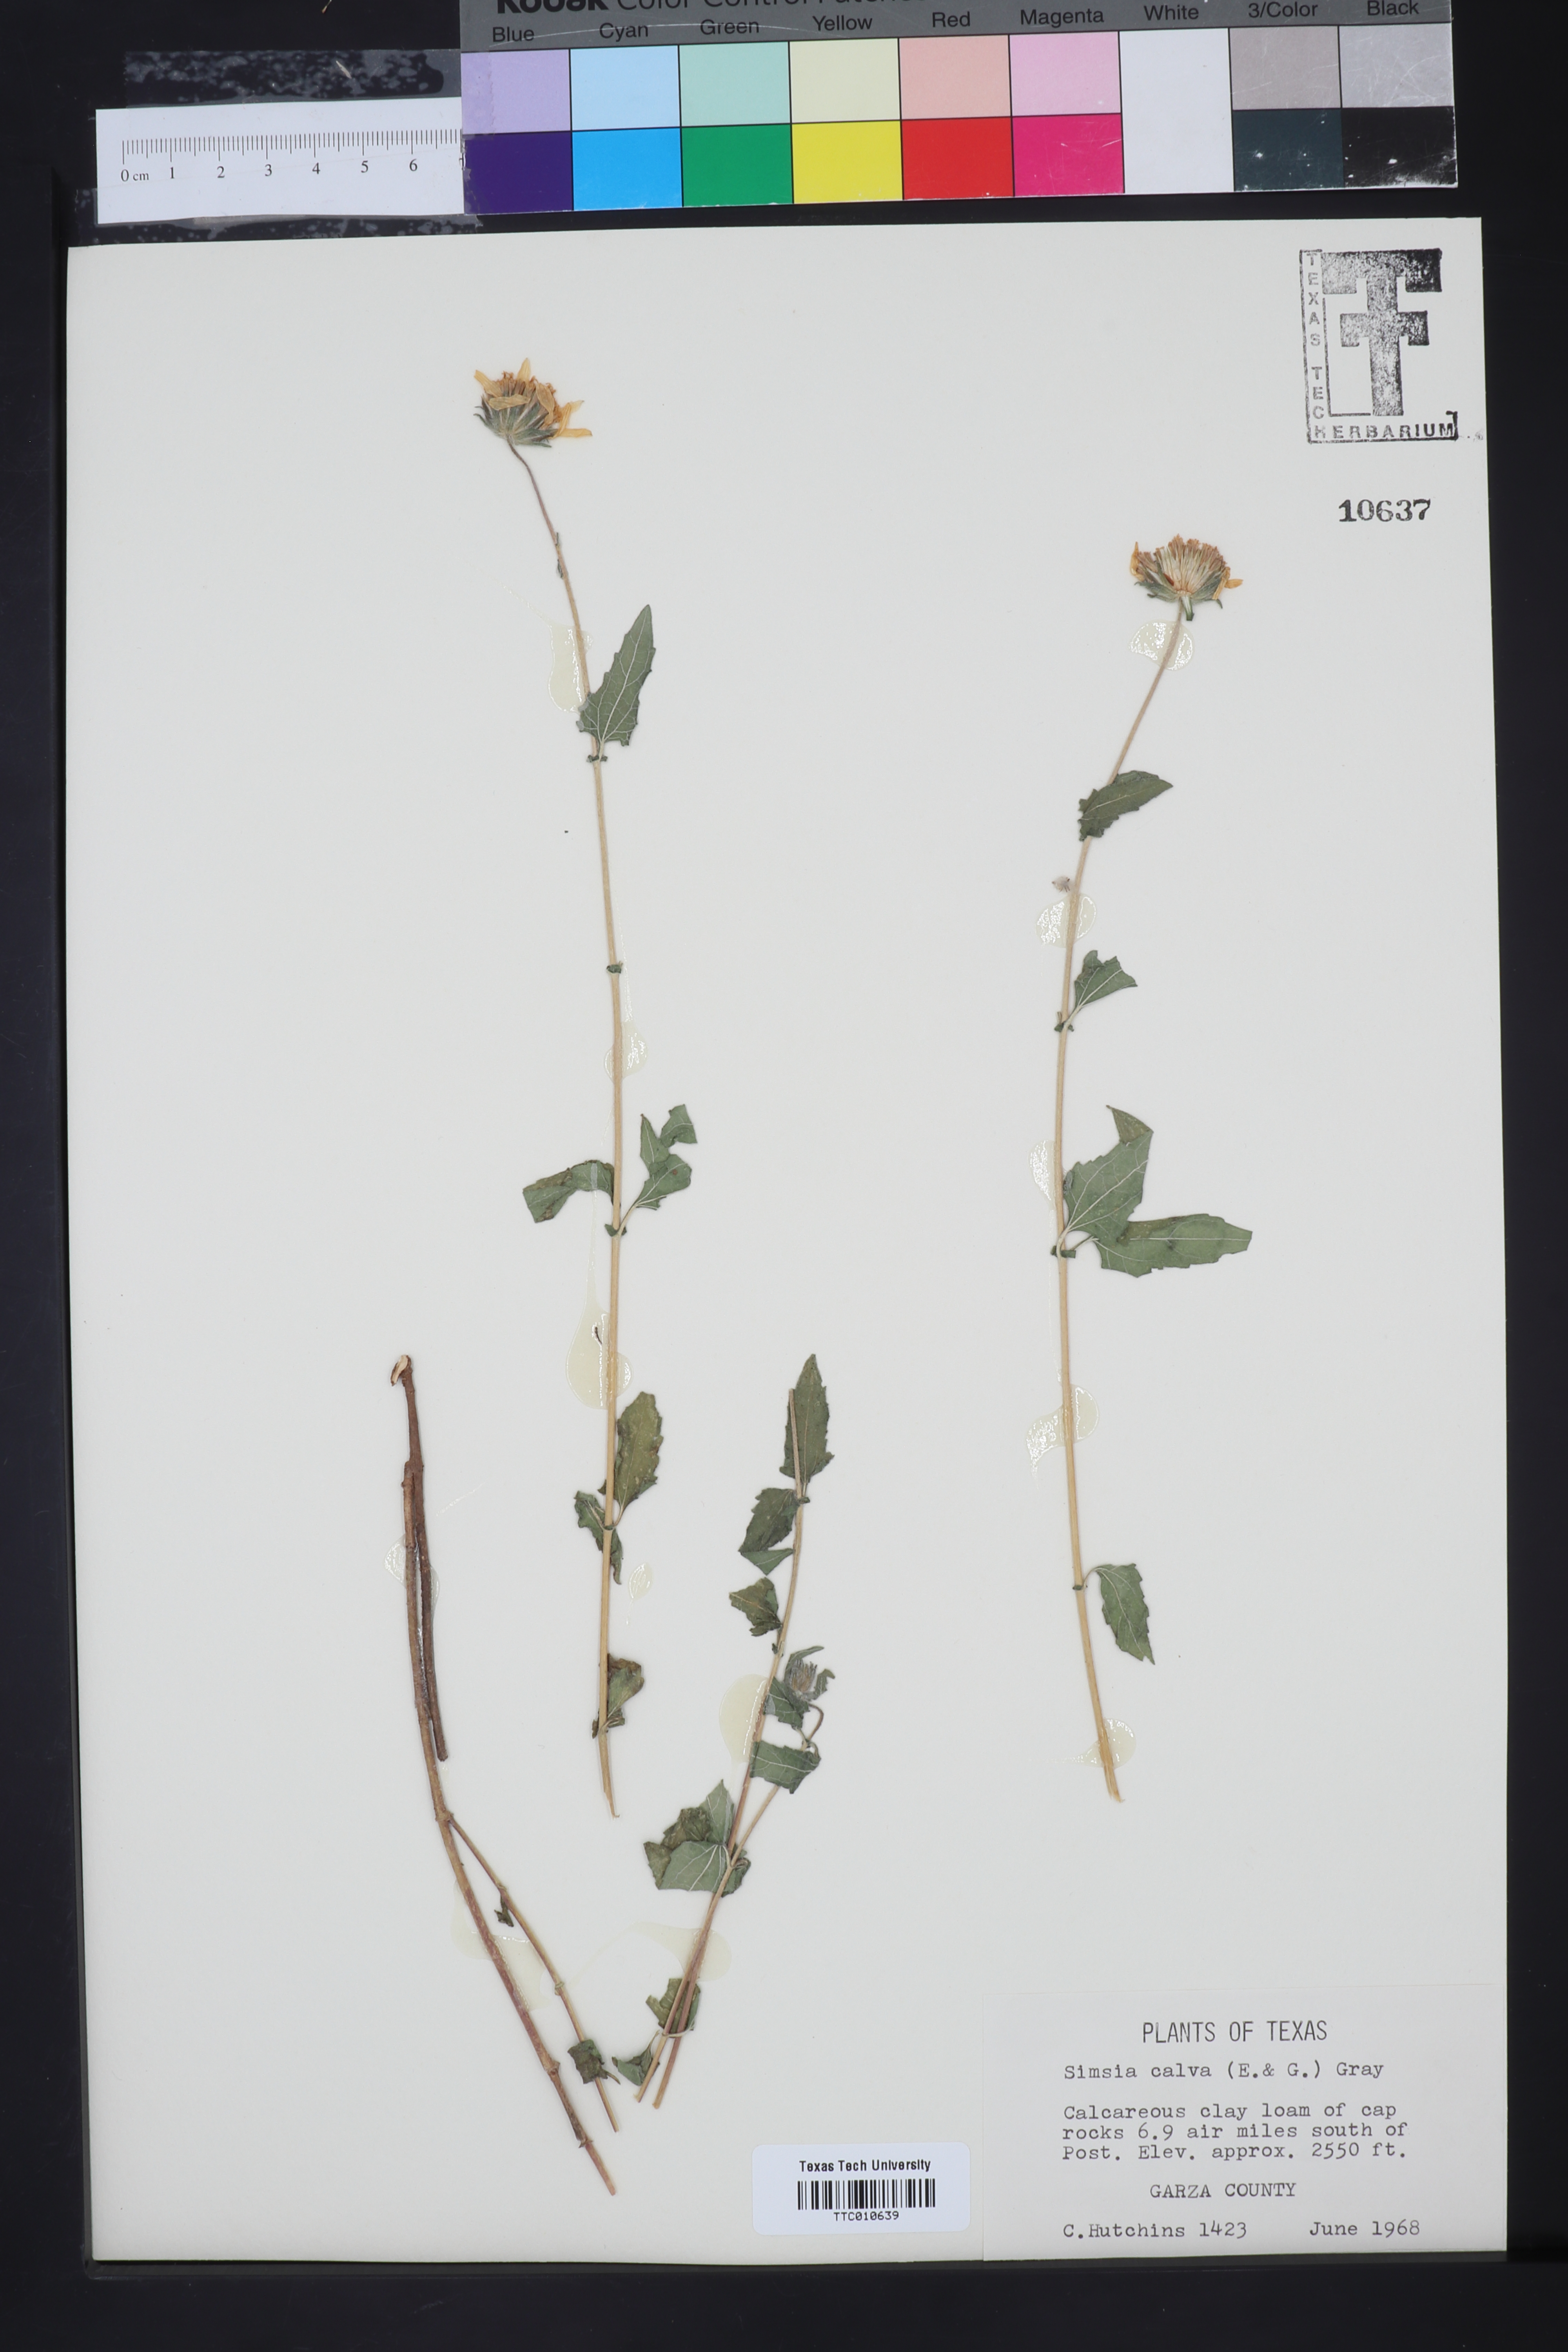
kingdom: Plantae
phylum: Tracheophyta
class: Magnoliopsida
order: Asterales
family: Asteraceae
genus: Simsia
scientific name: Simsia calva
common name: Awnless bush-sunflower
